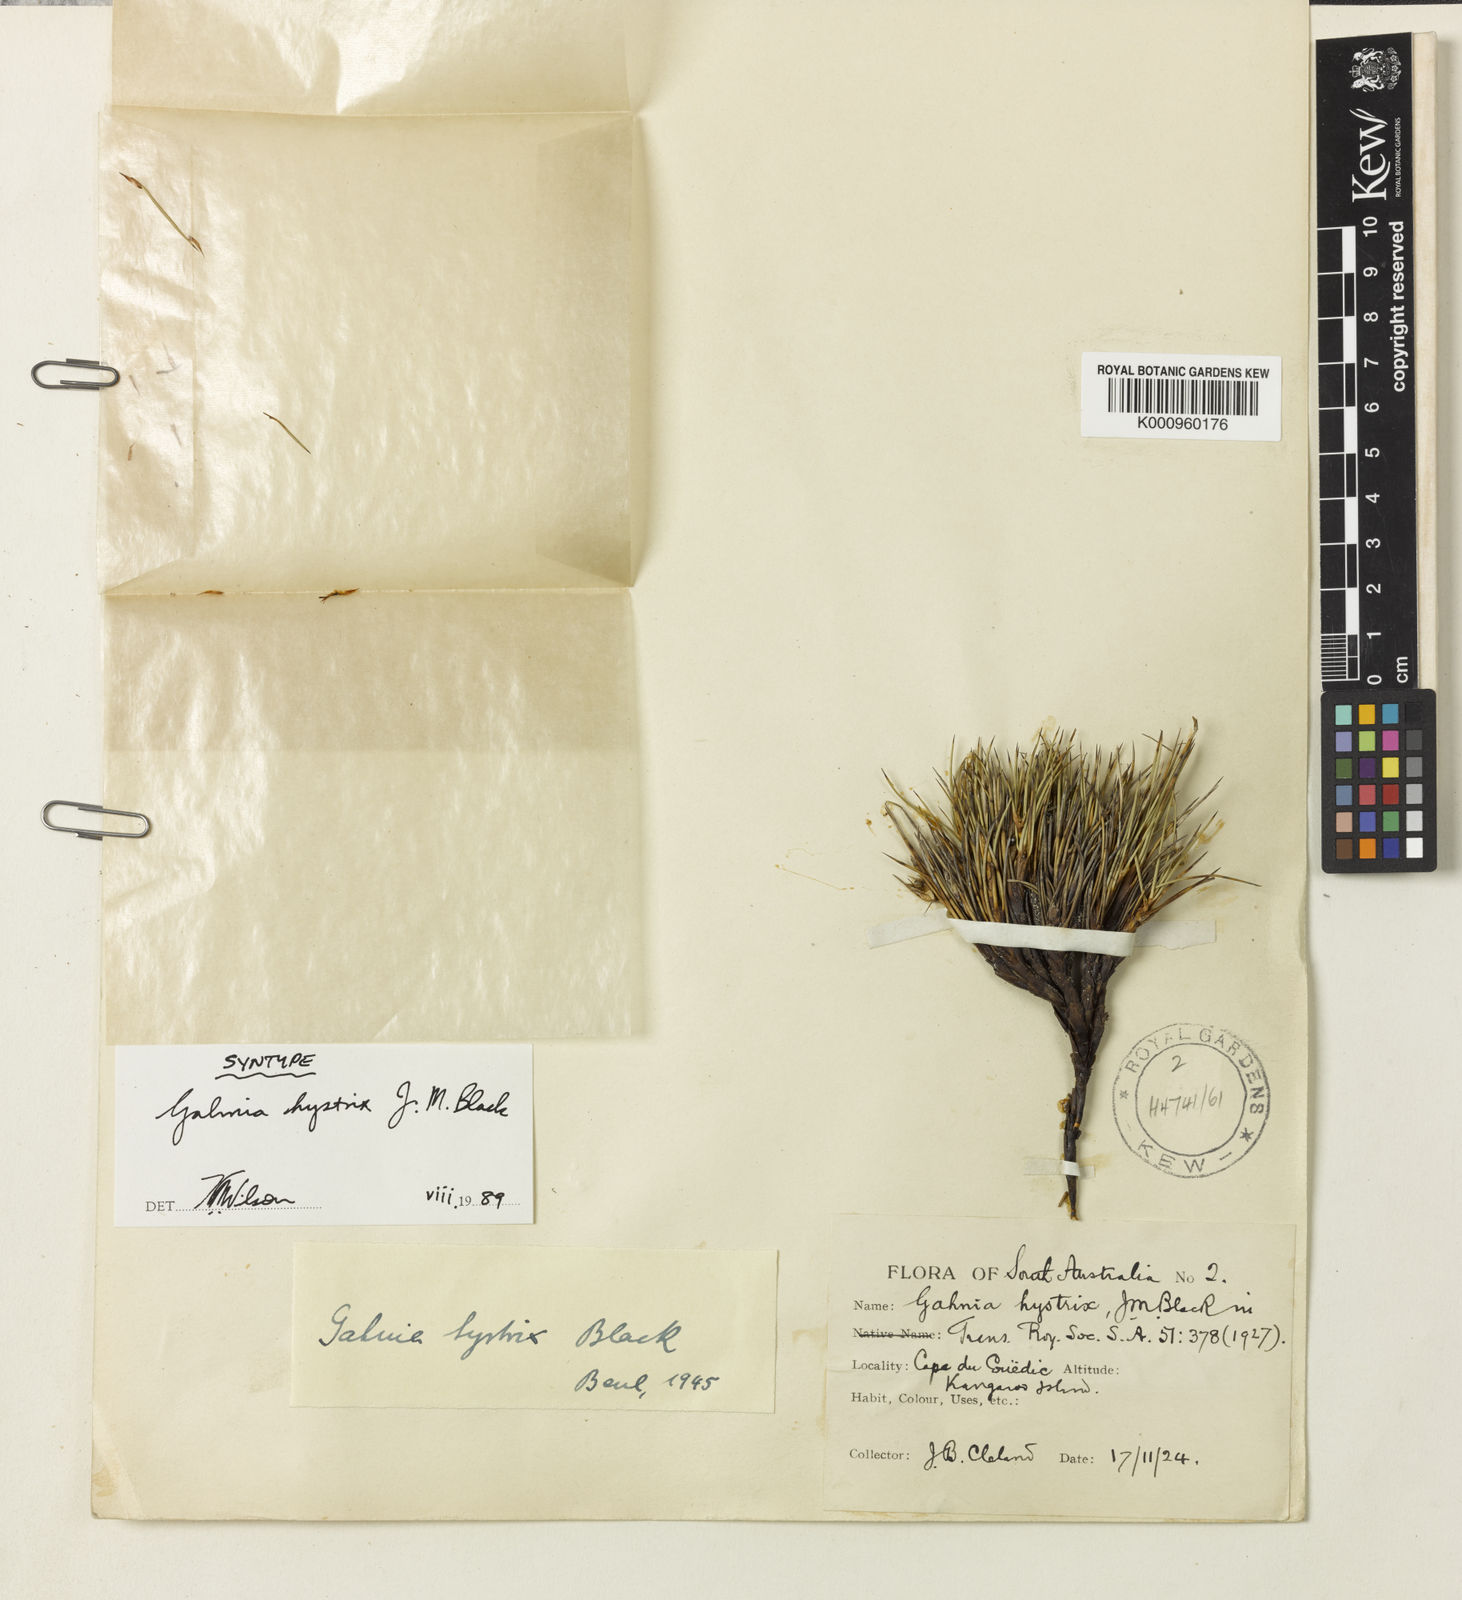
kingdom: Plantae
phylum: Tracheophyta
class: Liliopsida
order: Poales
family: Cyperaceae
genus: Gahnia
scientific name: Gahnia hystrix
